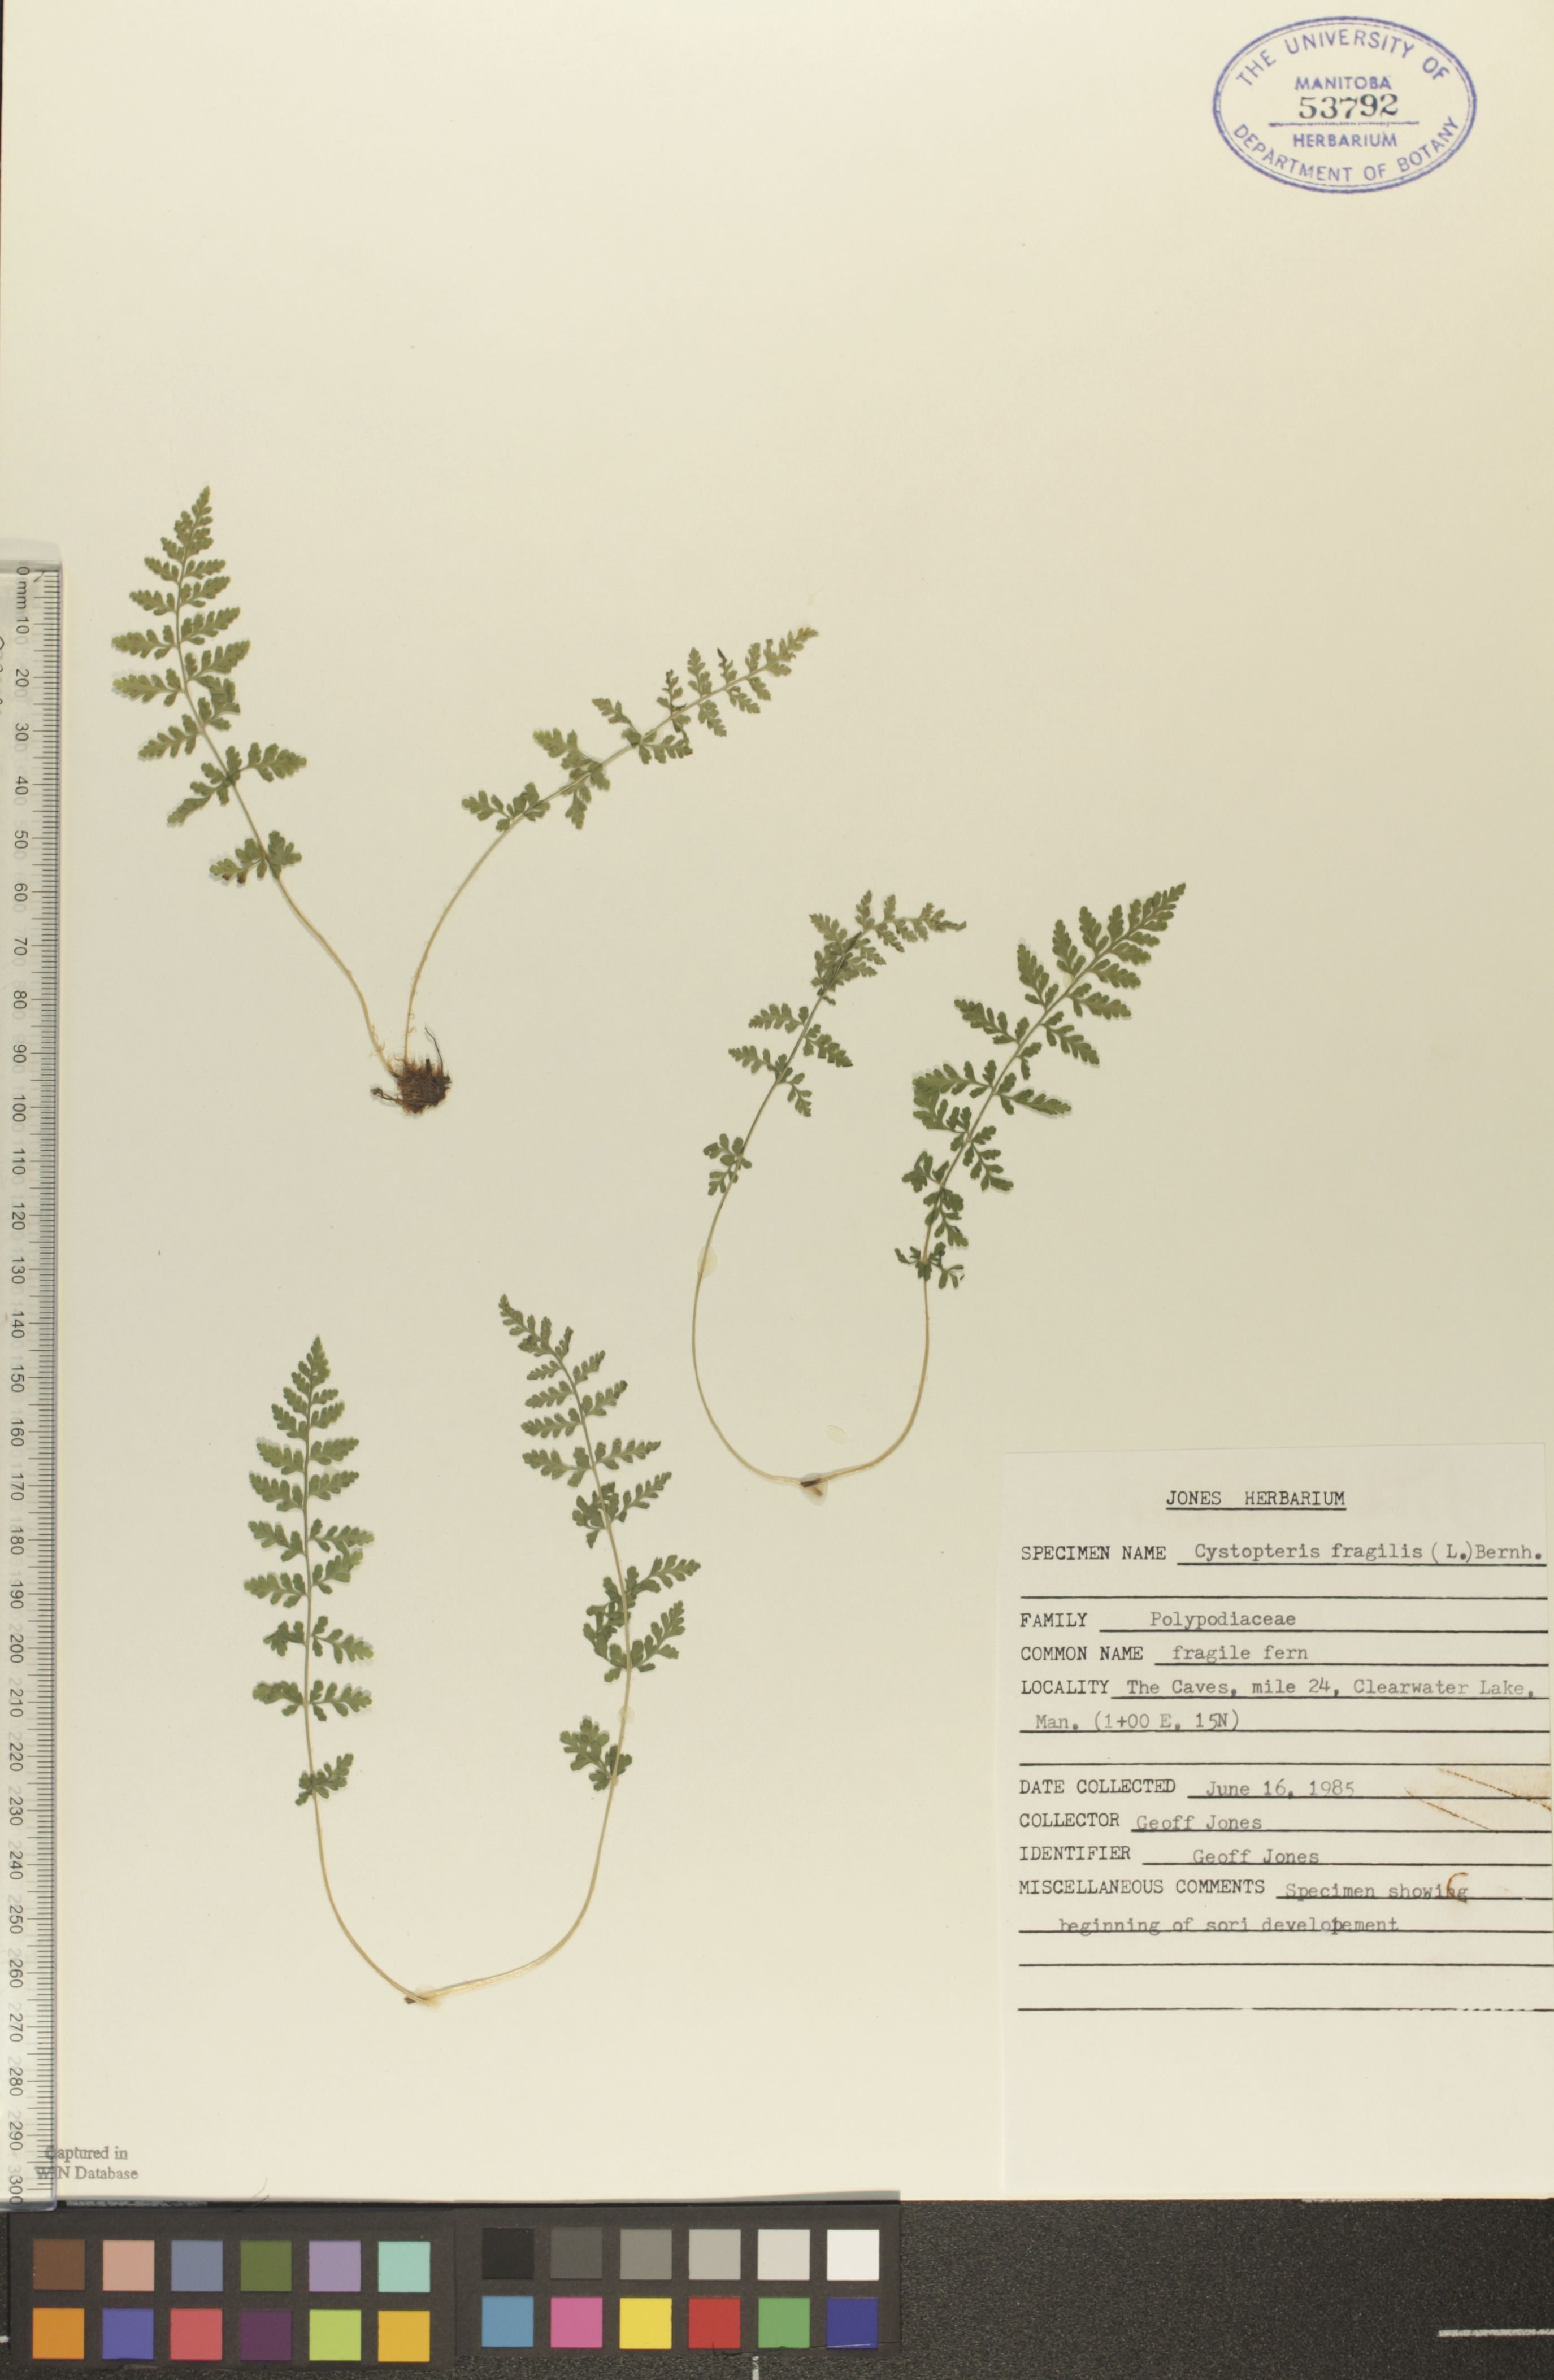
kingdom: Plantae
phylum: Tracheophyta
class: Polypodiopsida
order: Polypodiales
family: Cystopteridaceae
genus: Cystopteris
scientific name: Cystopteris tenuis
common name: Mackay's brittle fern
